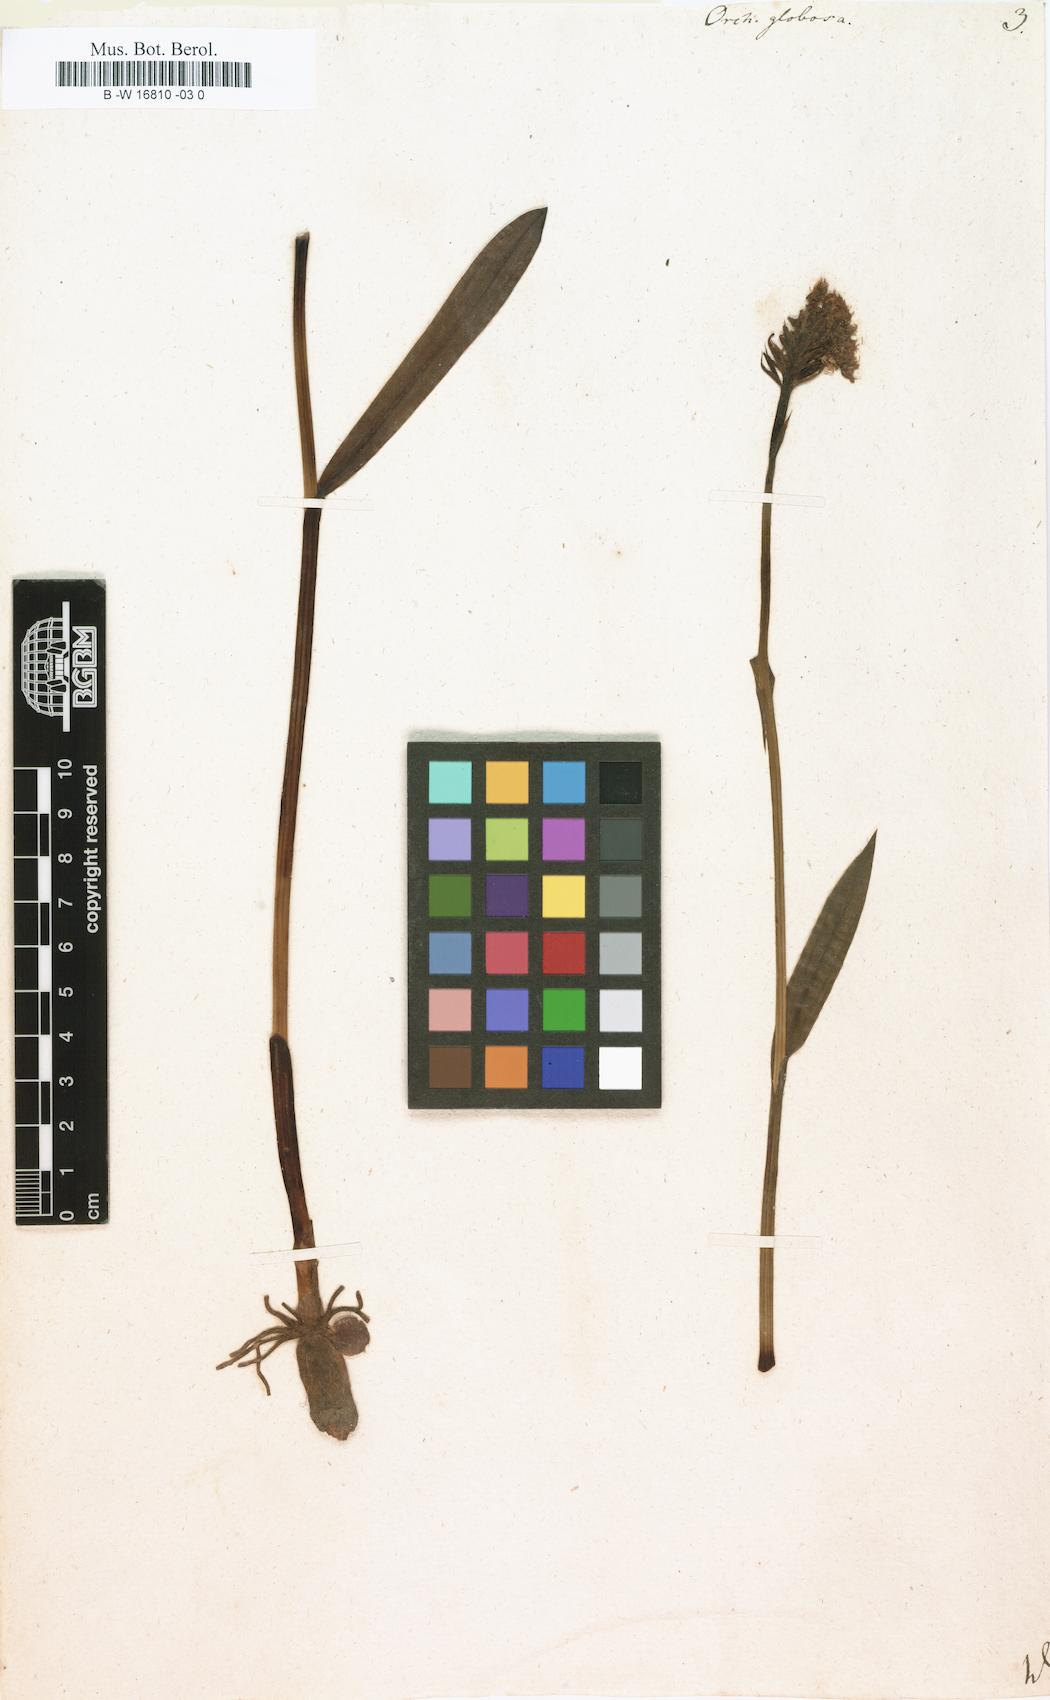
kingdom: Plantae
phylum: Tracheophyta
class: Liliopsida
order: Asparagales
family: Orchidaceae
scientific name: Orchidaceae
